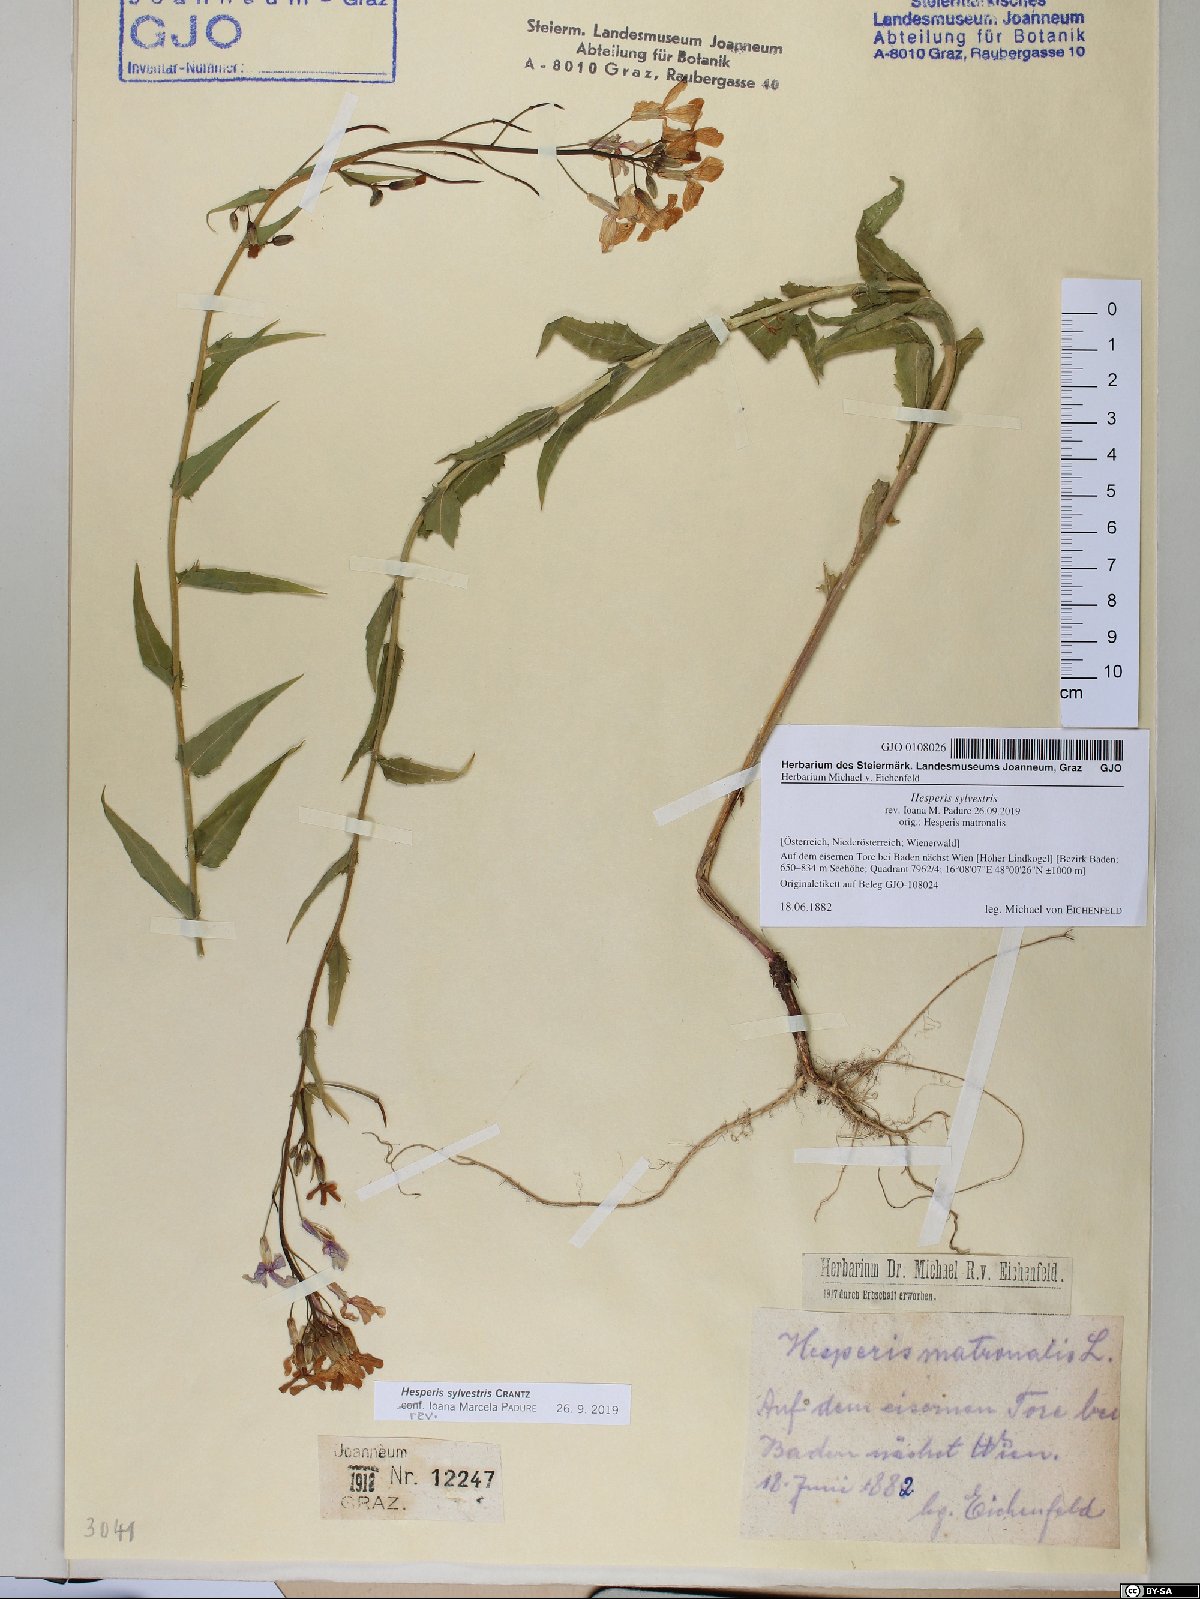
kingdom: Plantae
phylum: Tracheophyta
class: Magnoliopsida
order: Brassicales
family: Brassicaceae
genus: Hesperis
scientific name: Hesperis sylvestris
